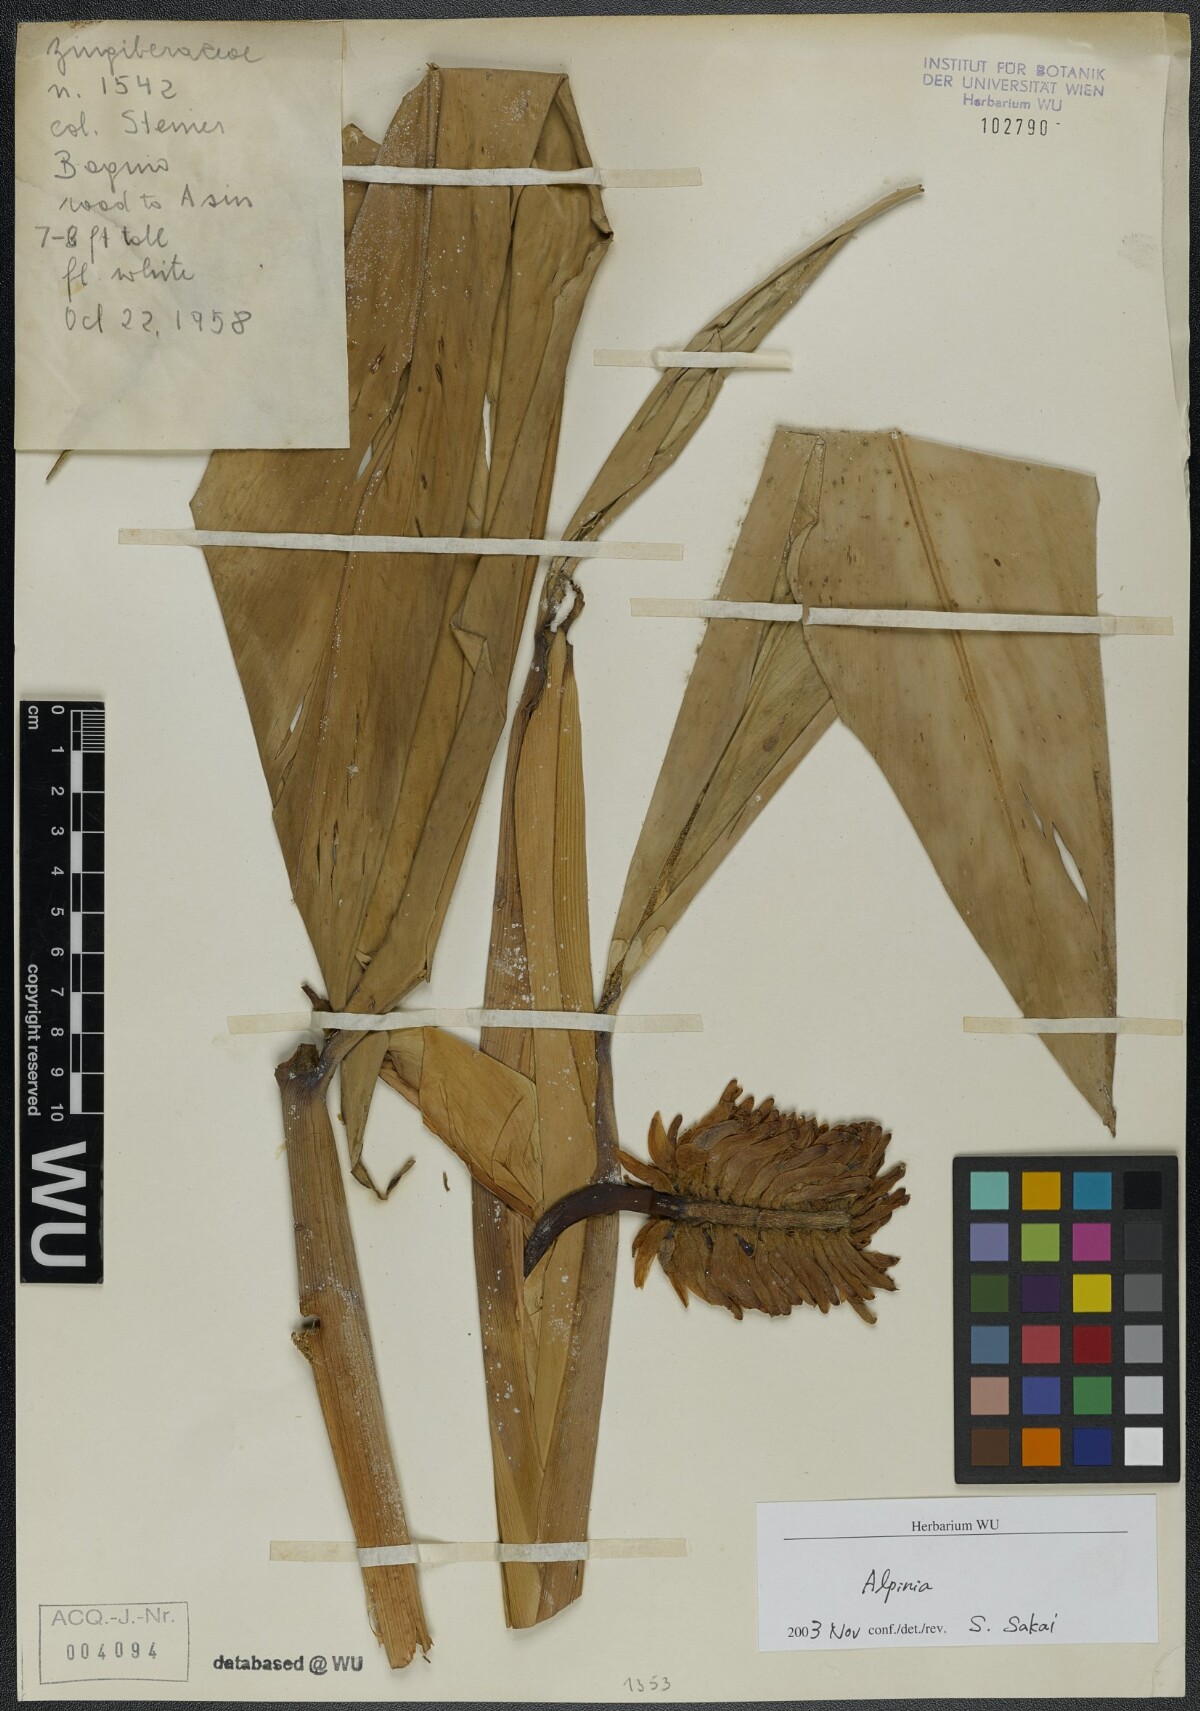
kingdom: Plantae
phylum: Tracheophyta
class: Liliopsida
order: Zingiberales
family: Zingiberaceae
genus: Alpinia
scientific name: Alpinia
